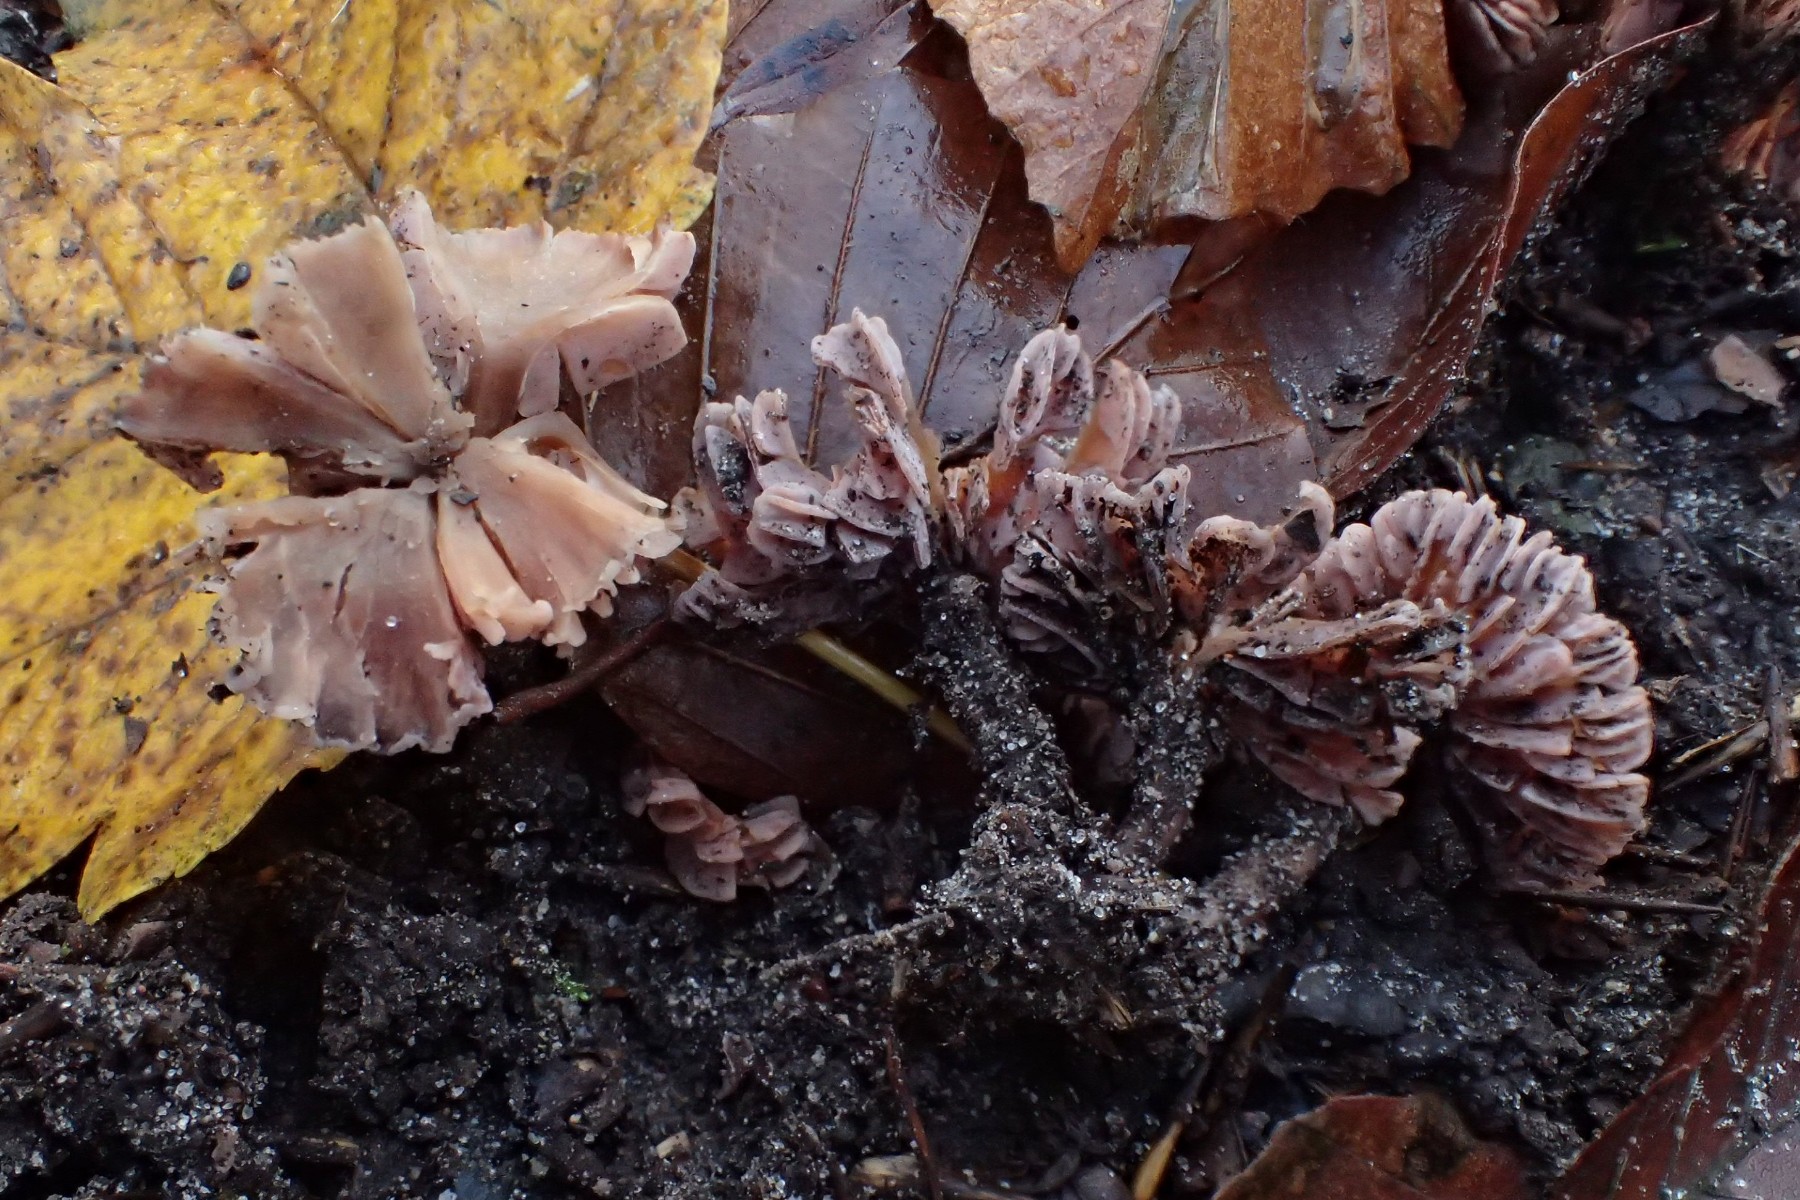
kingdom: Fungi
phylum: Basidiomycota
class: Agaricomycetes
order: Agaricales
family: Hydnangiaceae
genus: Laccaria
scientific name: Laccaria
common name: ametysthat
